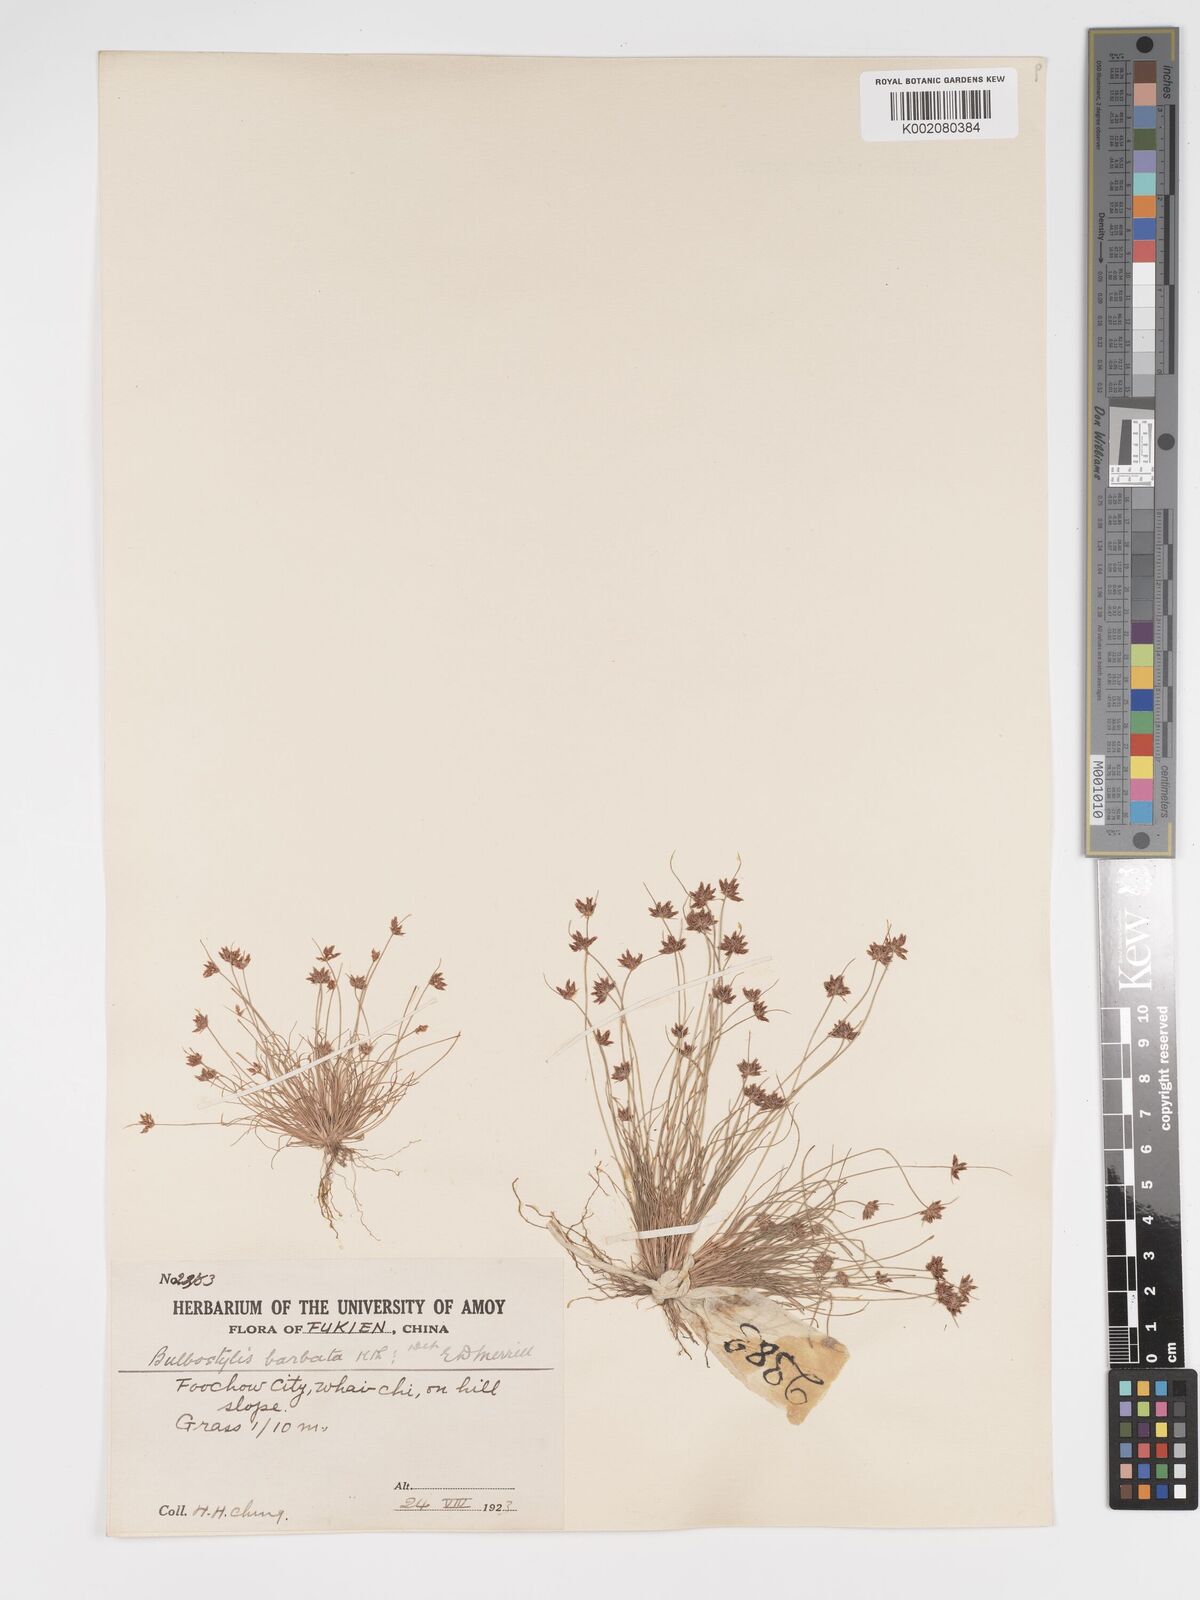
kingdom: Plantae
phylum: Tracheophyta
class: Liliopsida
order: Poales
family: Cyperaceae
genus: Bulbostylis
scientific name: Bulbostylis barbata
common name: Watergrass
